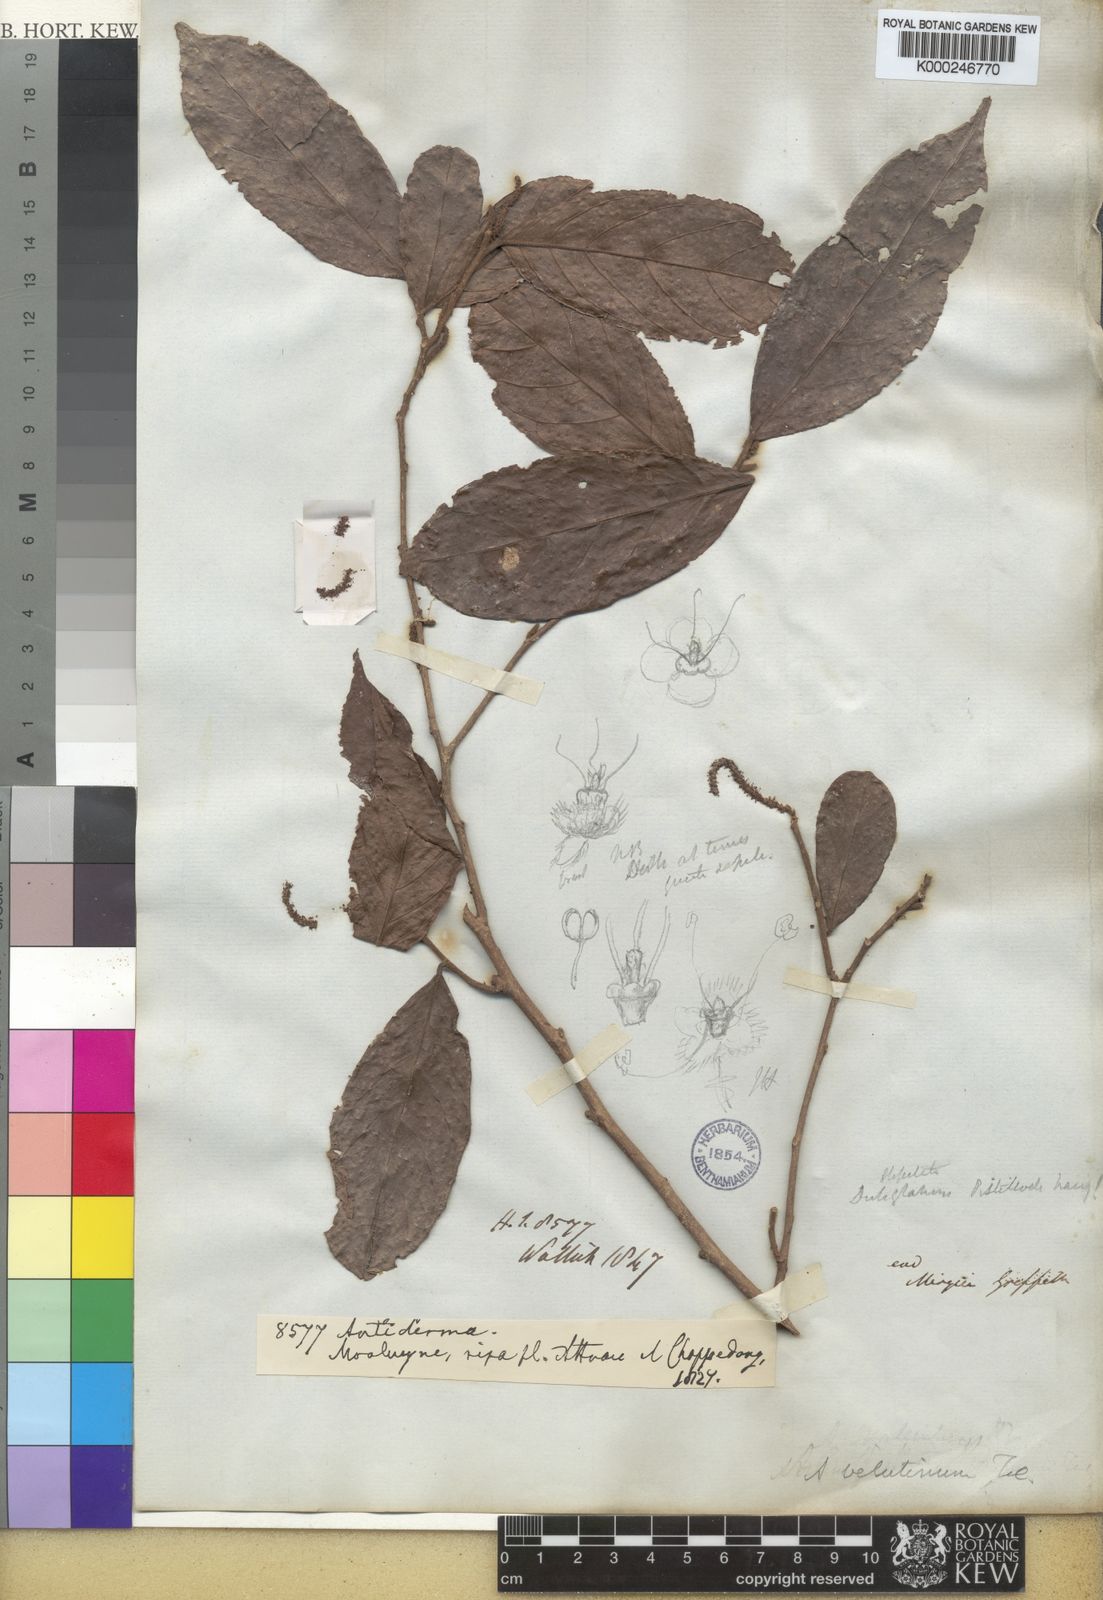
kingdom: Plantae
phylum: Tracheophyta
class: Magnoliopsida
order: Malpighiales
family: Phyllanthaceae
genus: Antidesma
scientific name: Antidesma velutinum
